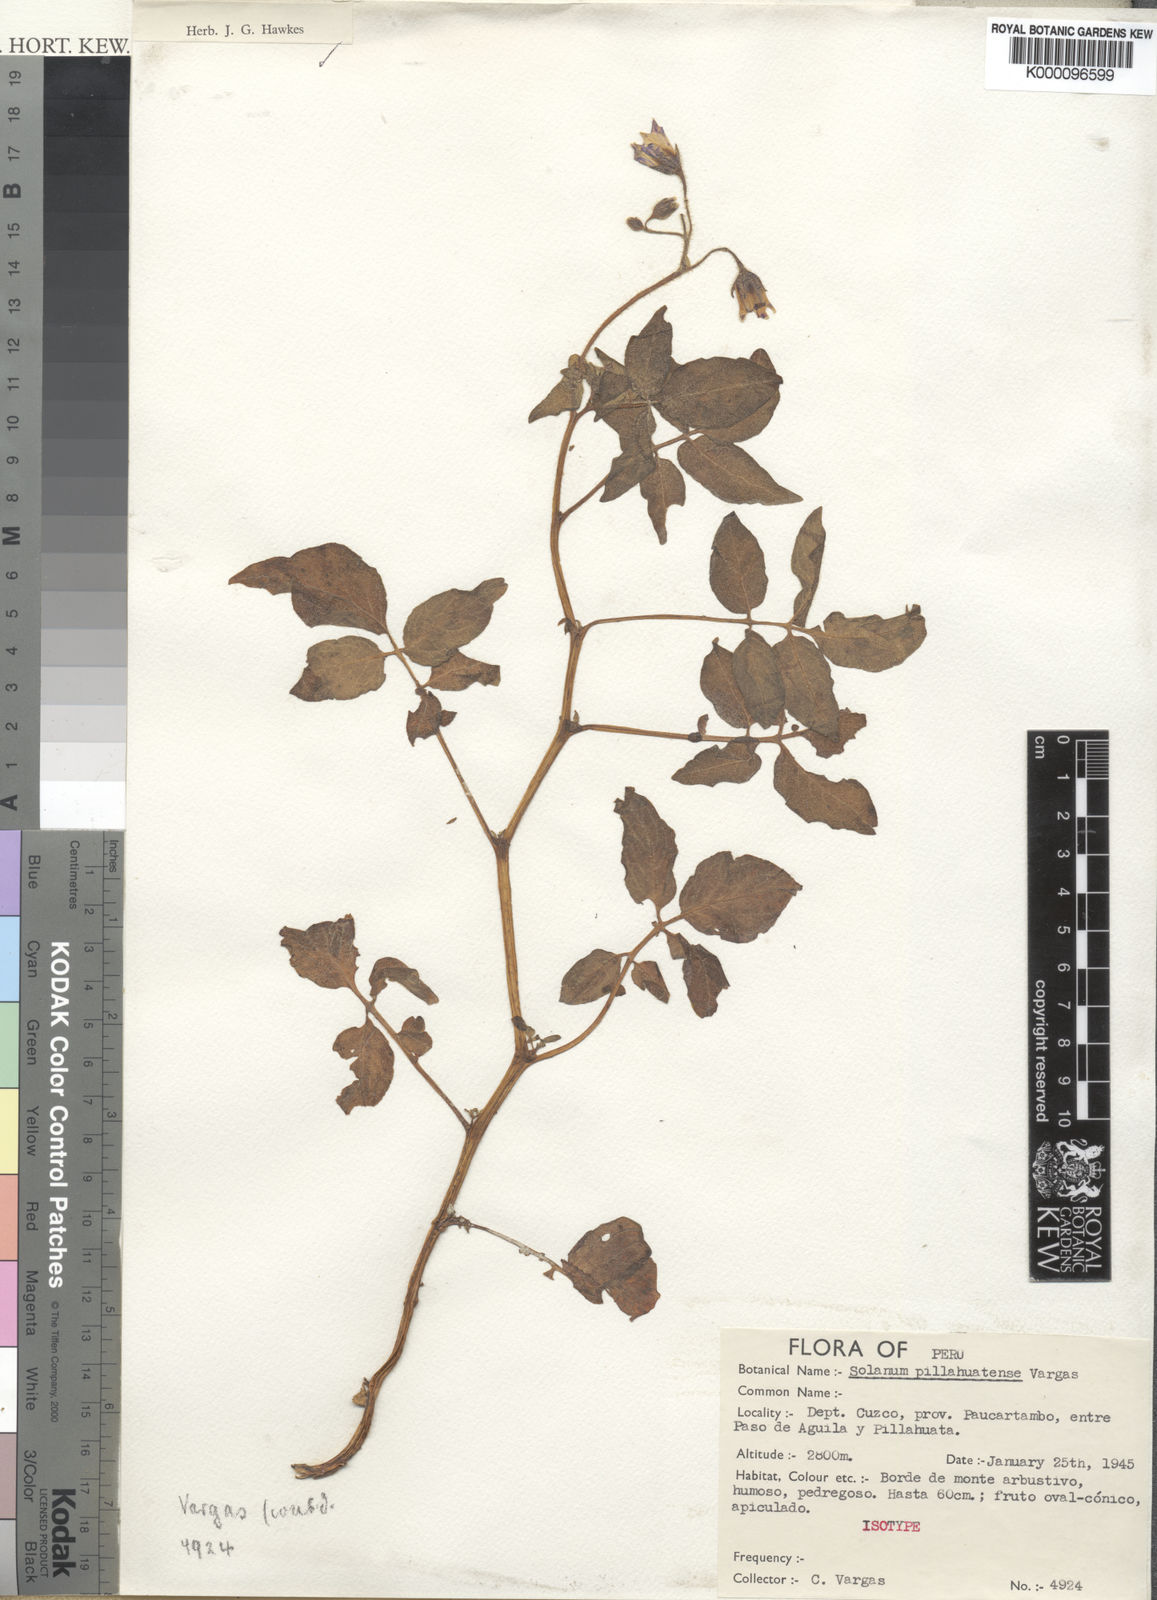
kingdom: Plantae
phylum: Tracheophyta
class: Magnoliopsida
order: Solanales
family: Solanaceae
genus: Solanum
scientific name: Solanum pillahuatense
